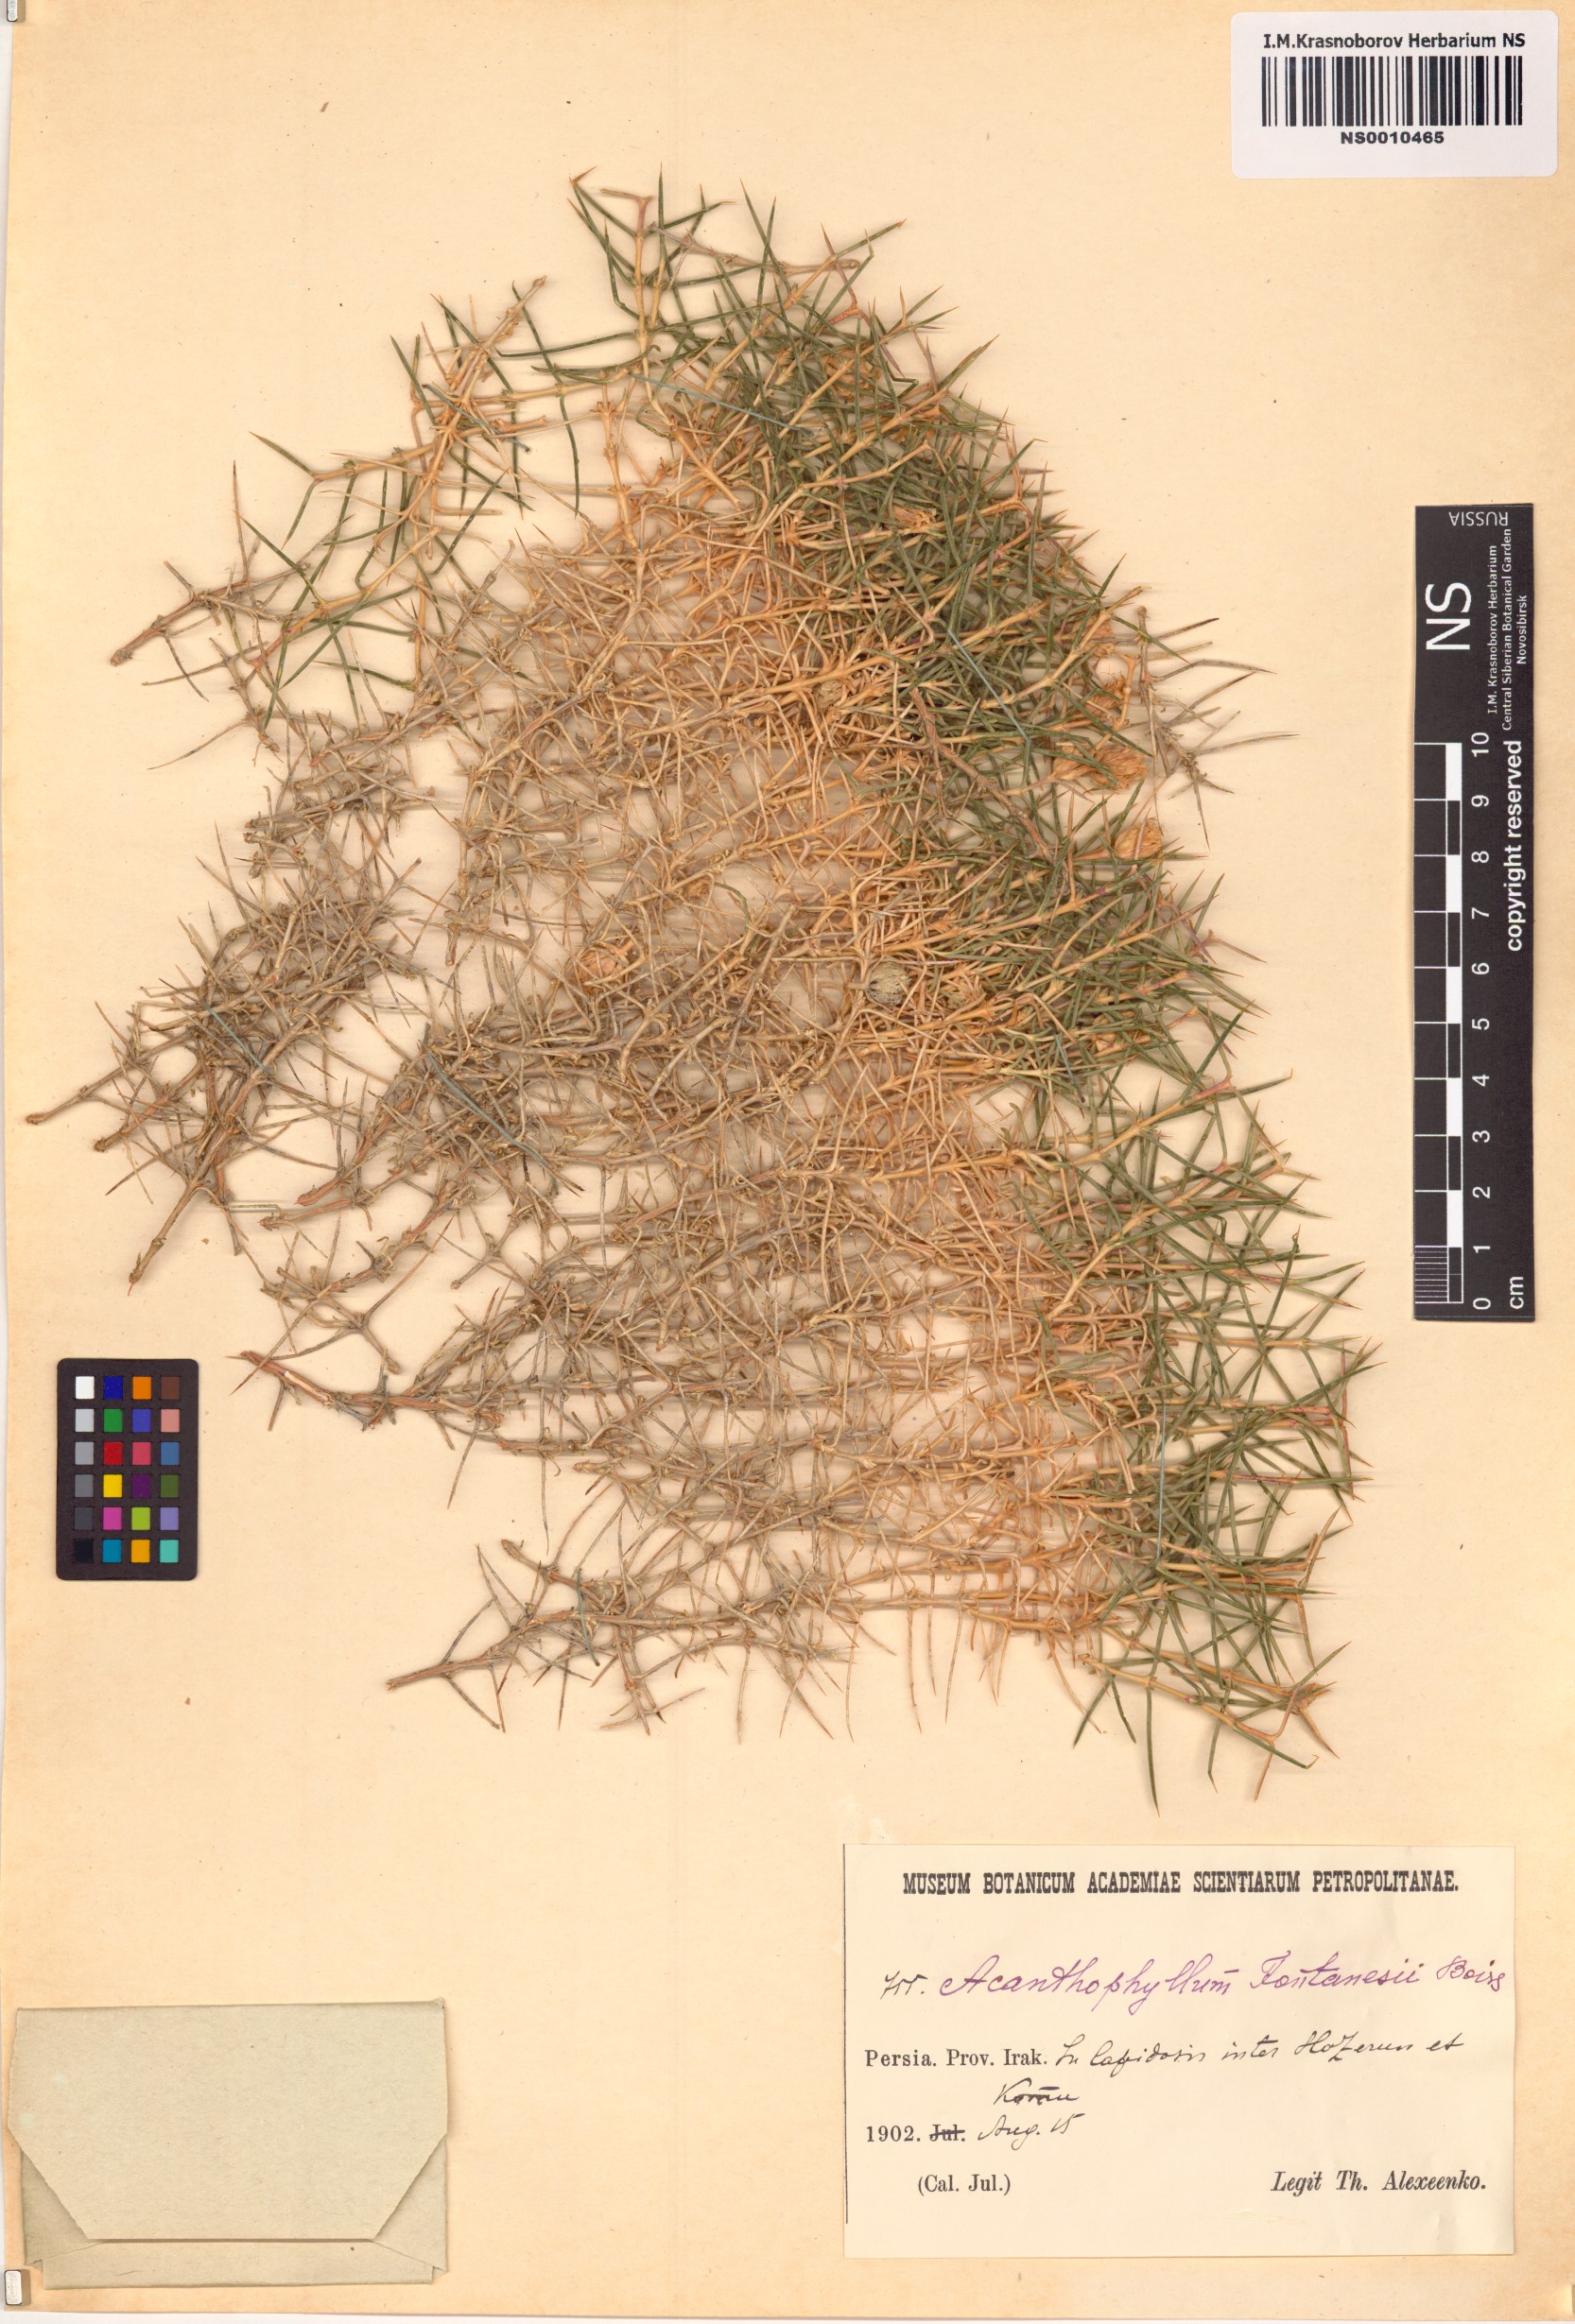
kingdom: Plantae
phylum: Tracheophyta
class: Magnoliopsida
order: Caryophyllales
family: Caryophyllaceae
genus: Acanthophyllum
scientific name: Acanthophyllum
